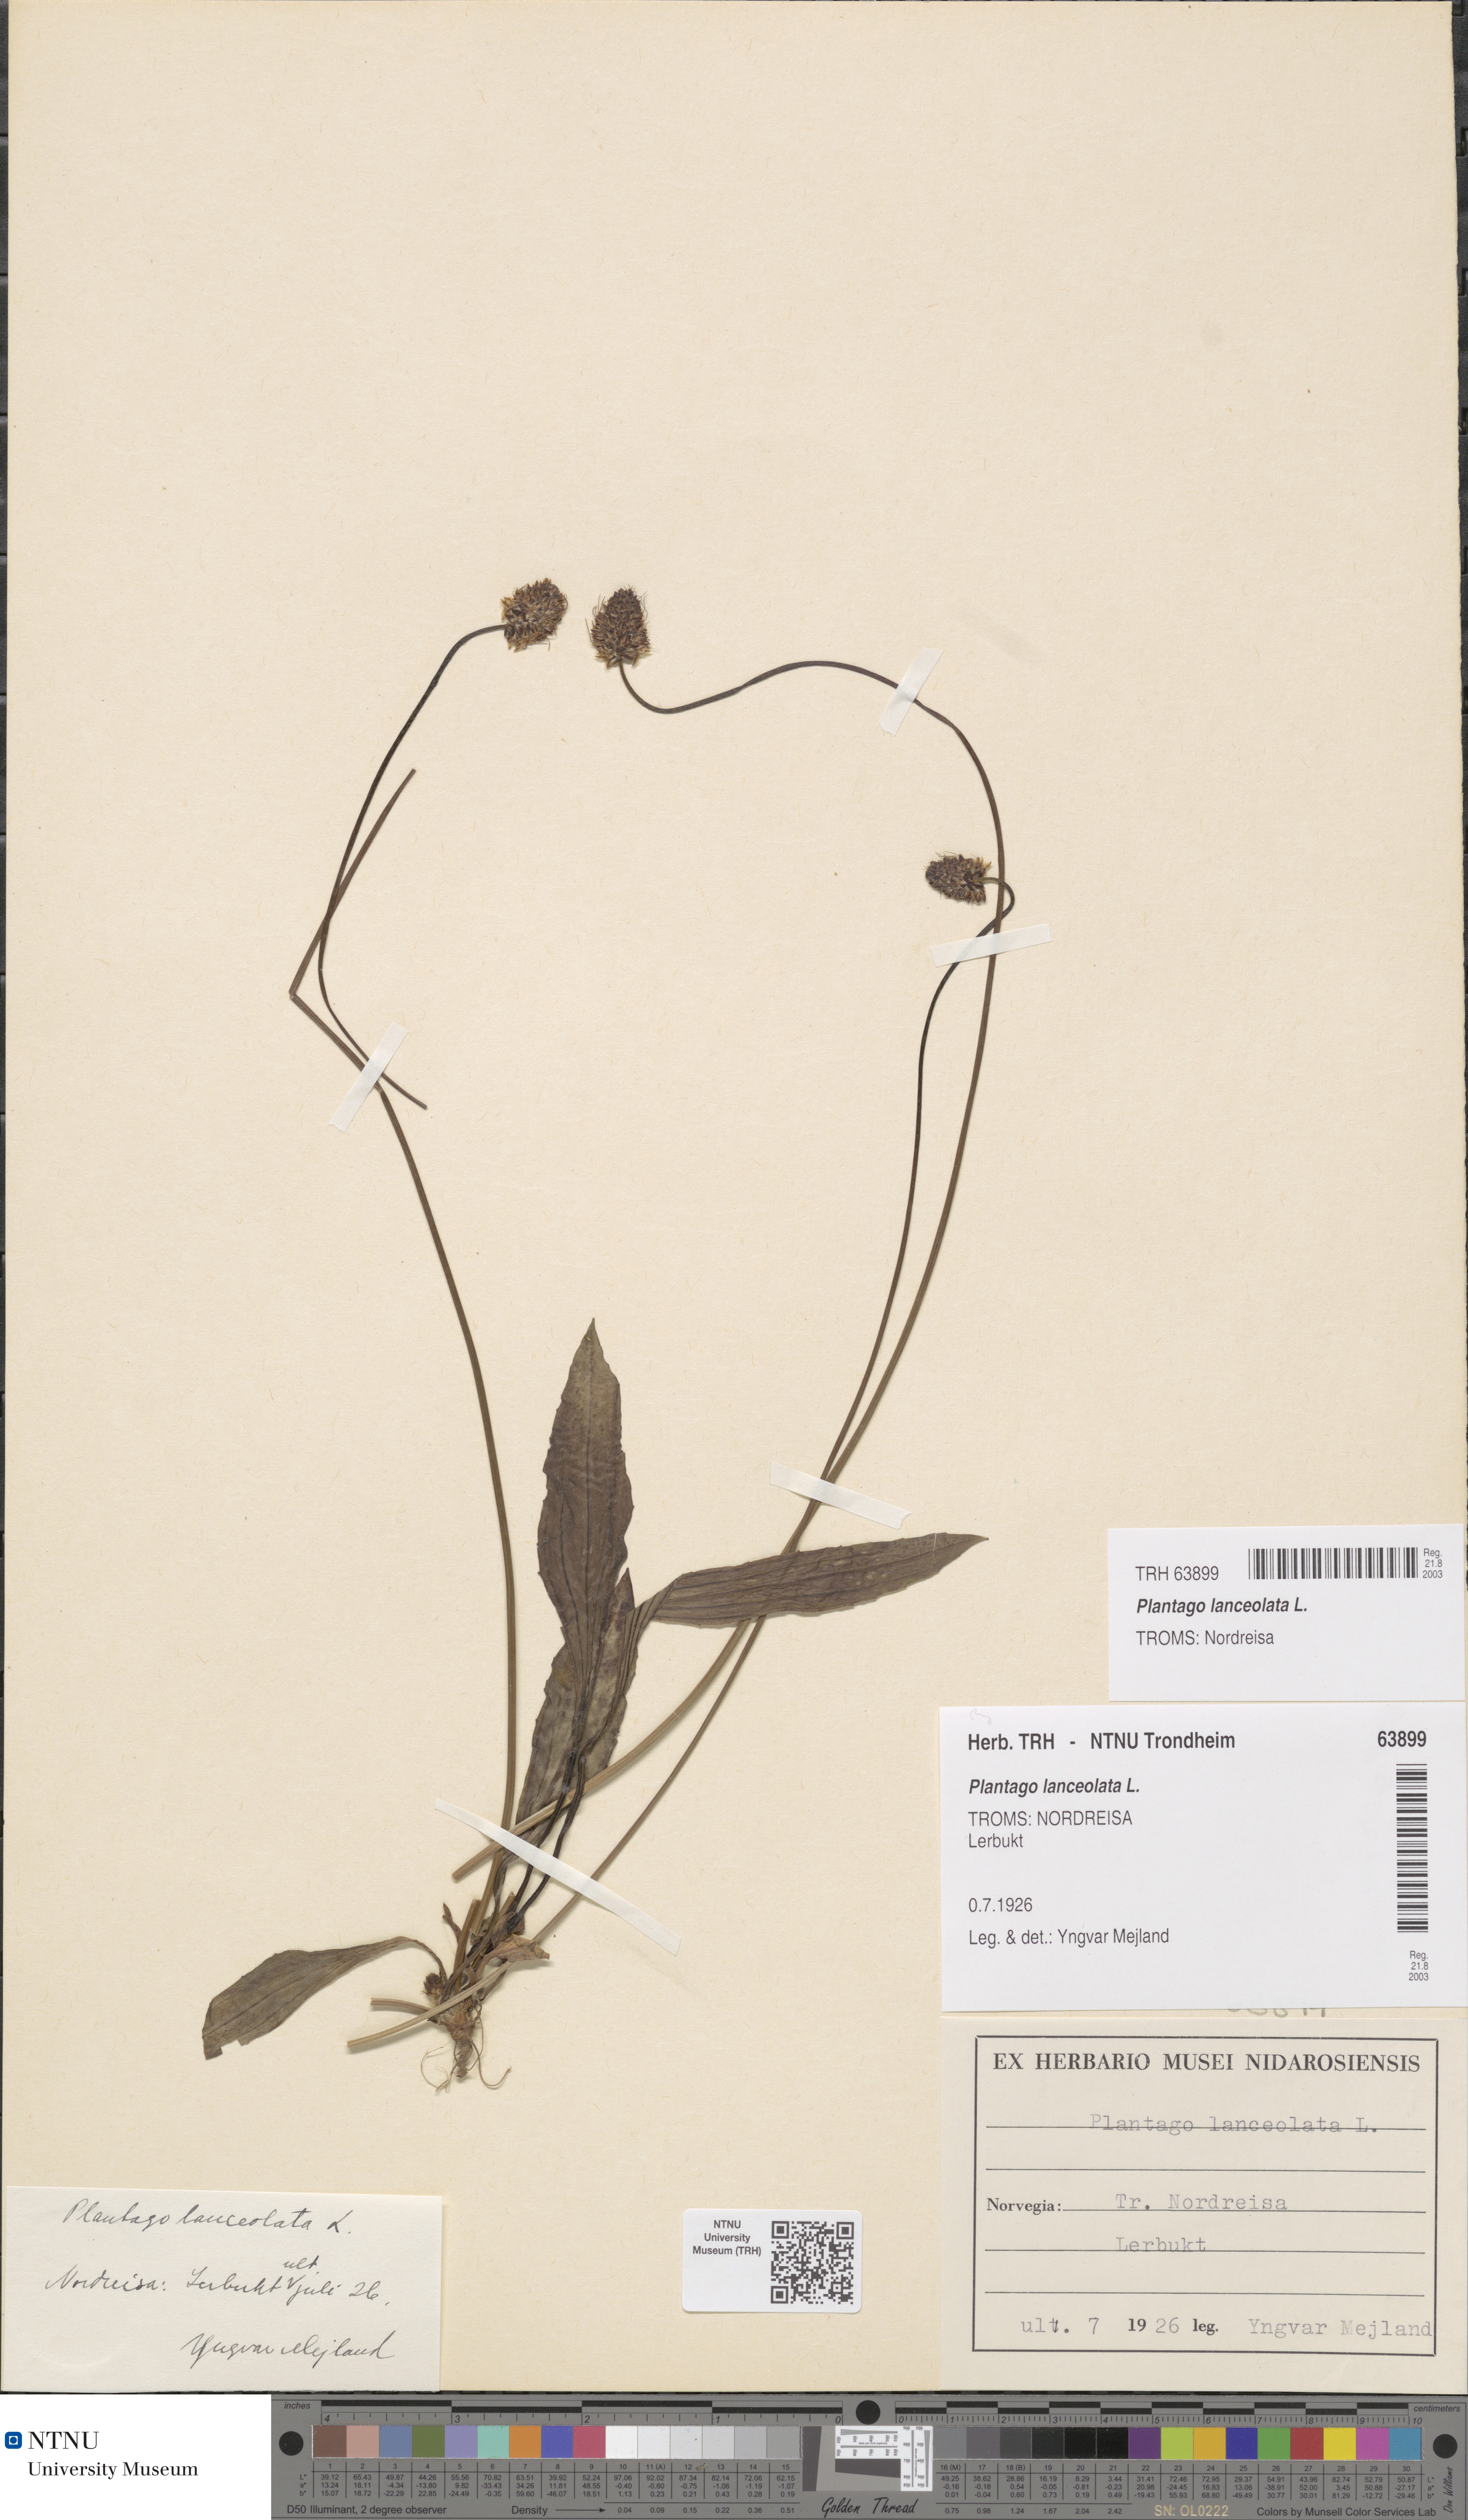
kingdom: Plantae
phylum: Tracheophyta
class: Magnoliopsida
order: Lamiales
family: Plantaginaceae
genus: Plantago
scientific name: Plantago lanceolata
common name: Ribwort plantain
